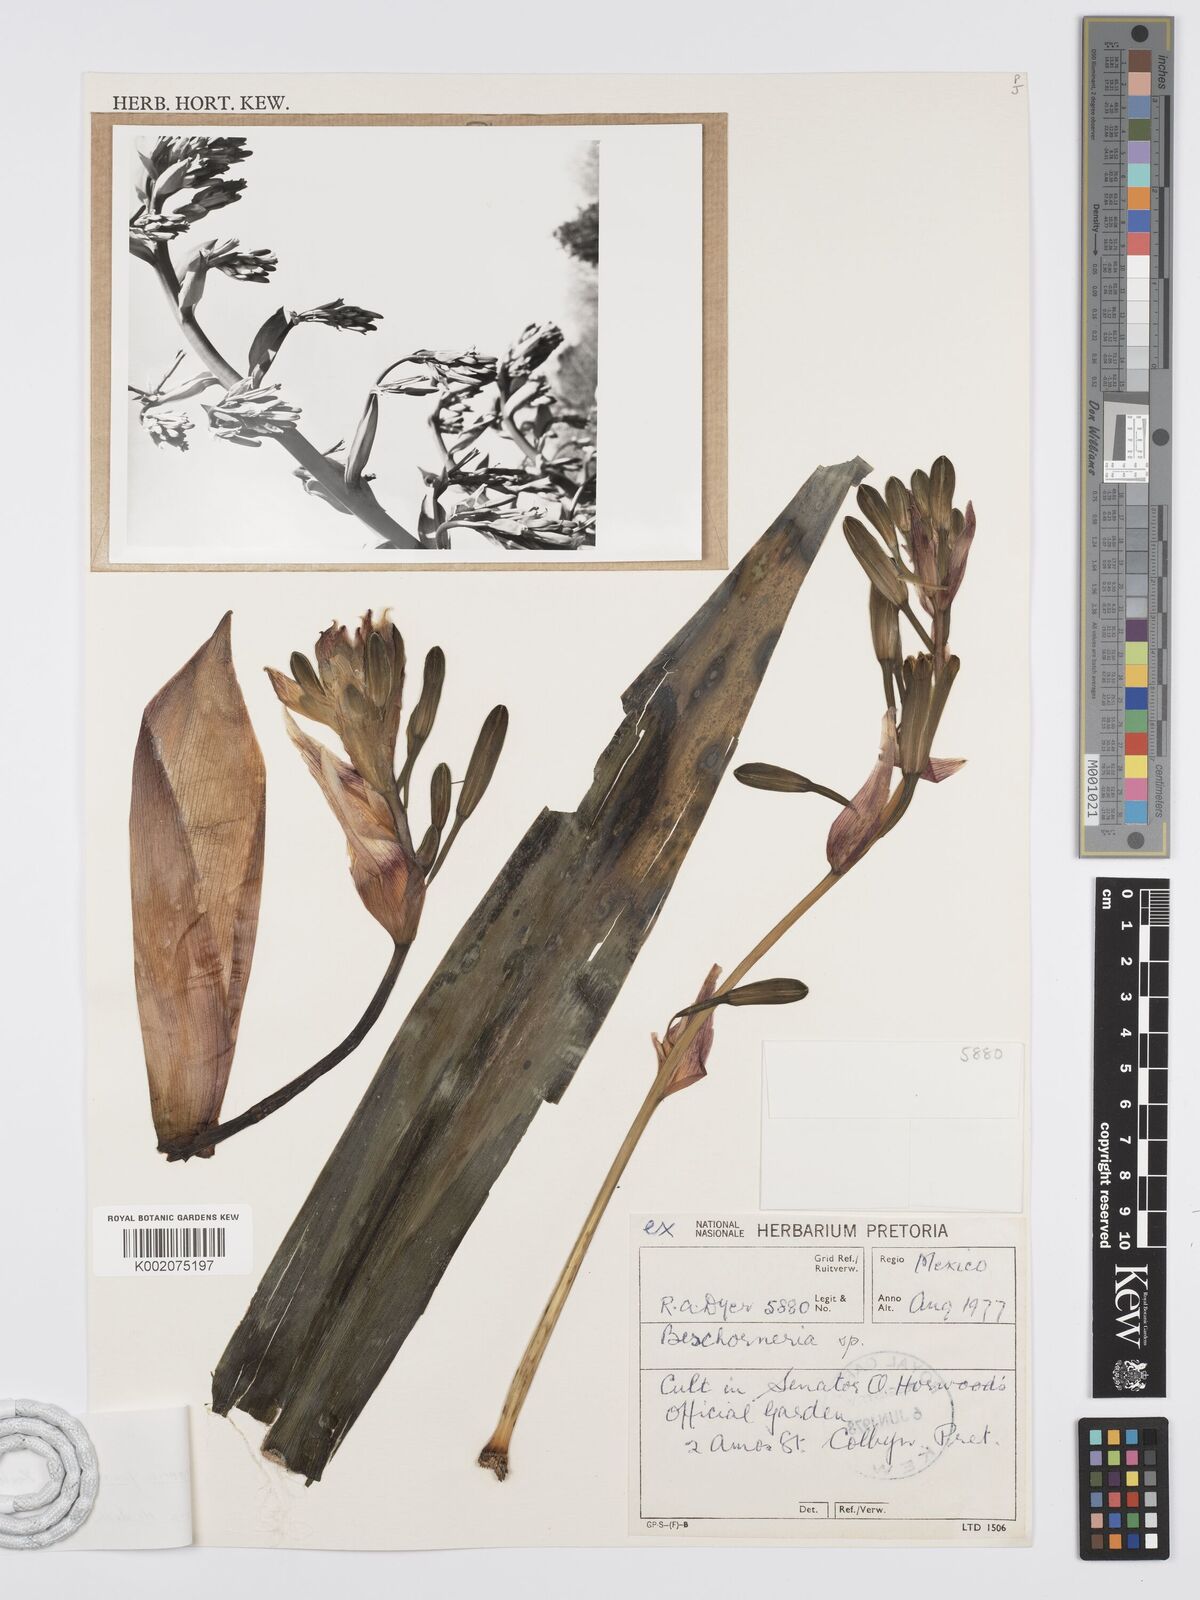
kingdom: Plantae
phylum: Tracheophyta
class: Liliopsida
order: Asparagales
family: Asparagaceae
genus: Beschorneria
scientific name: Beschorneria
